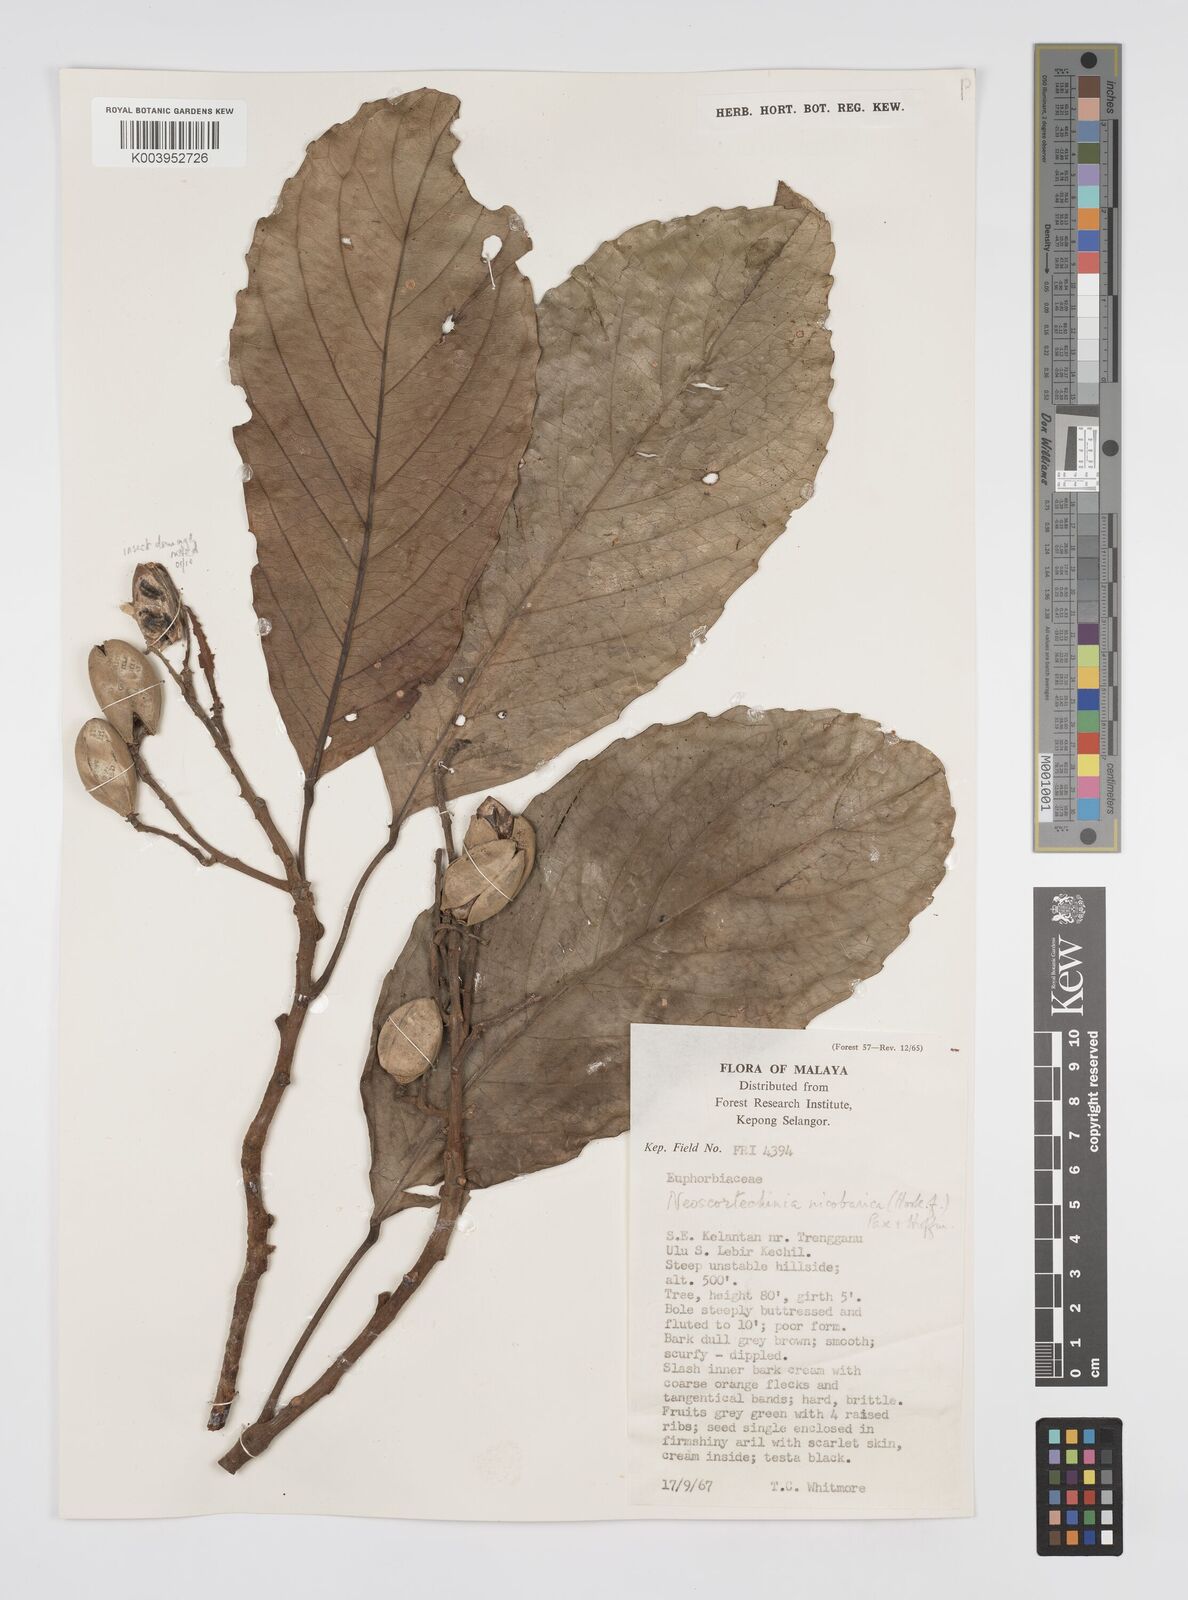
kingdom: Plantae
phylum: Tracheophyta
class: Magnoliopsida
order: Malpighiales
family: Euphorbiaceae
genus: Neoscortechinia
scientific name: Neoscortechinia nicobarica
